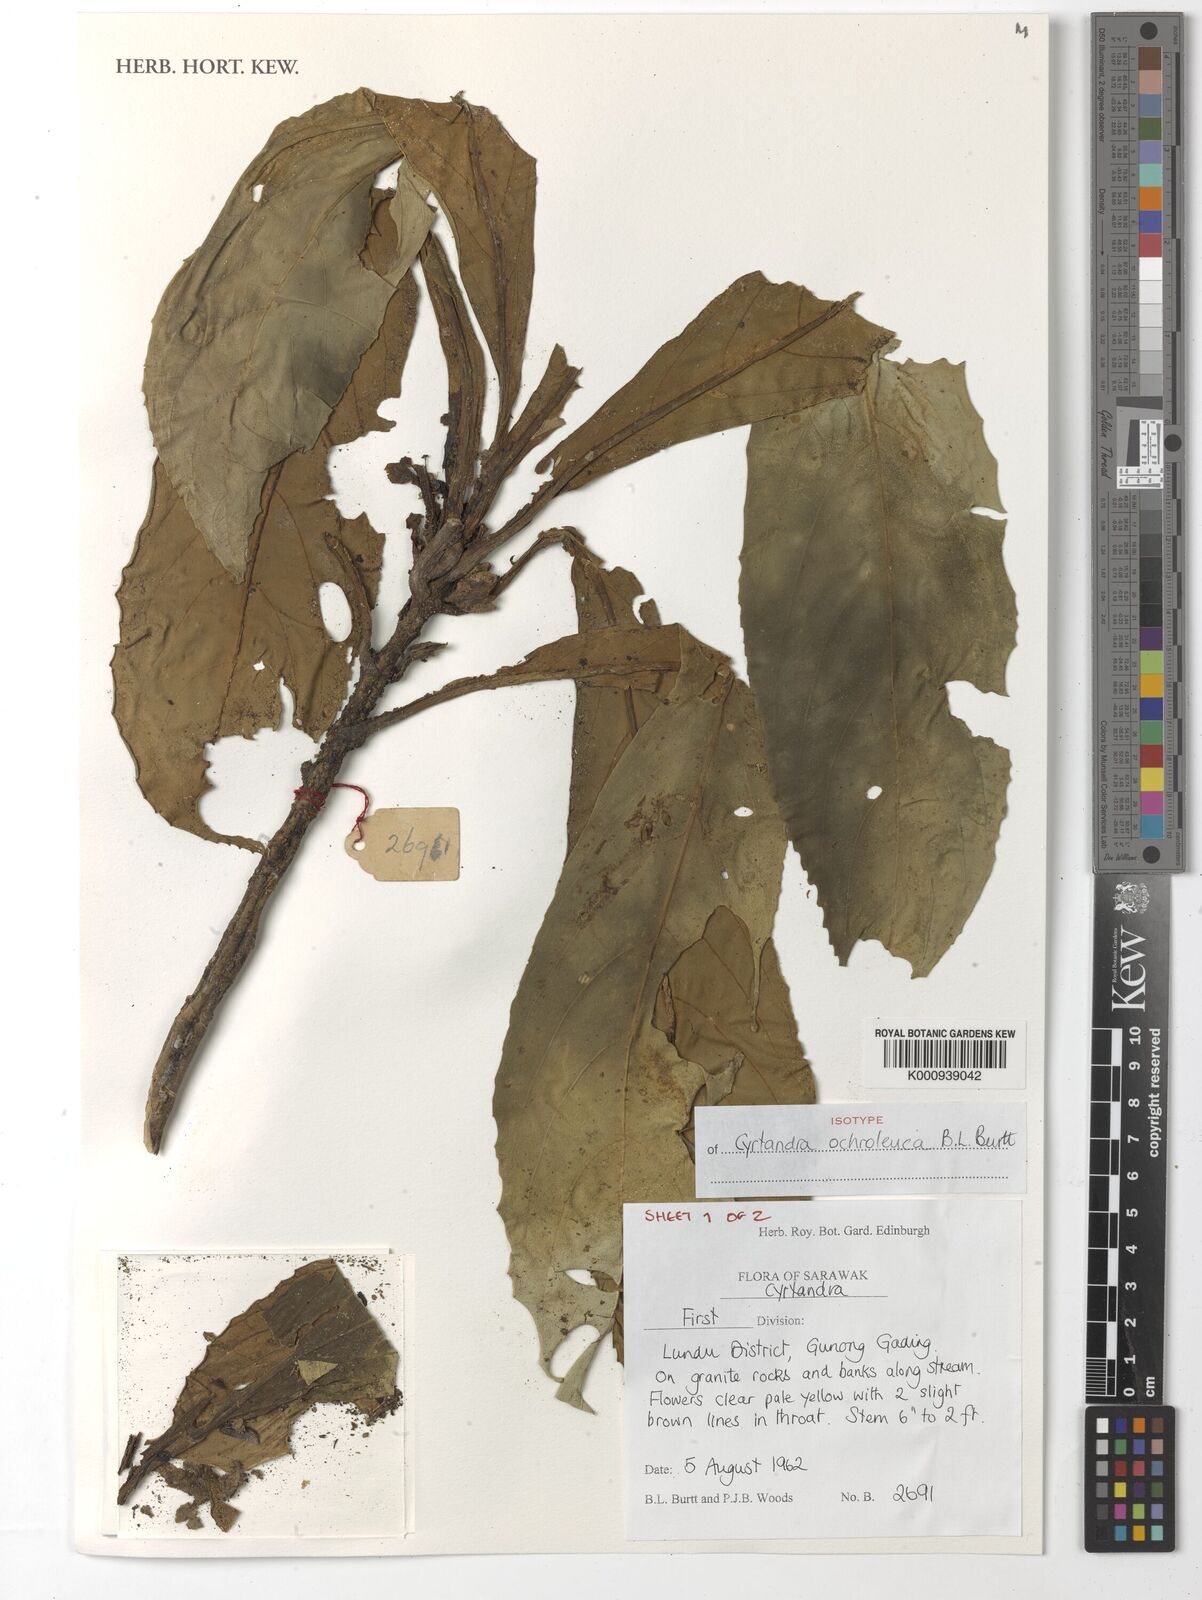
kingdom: Plantae
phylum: Tracheophyta
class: Magnoliopsida
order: Lamiales
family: Gesneriaceae
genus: Cyrtandra
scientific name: Cyrtandra ochroleuca
